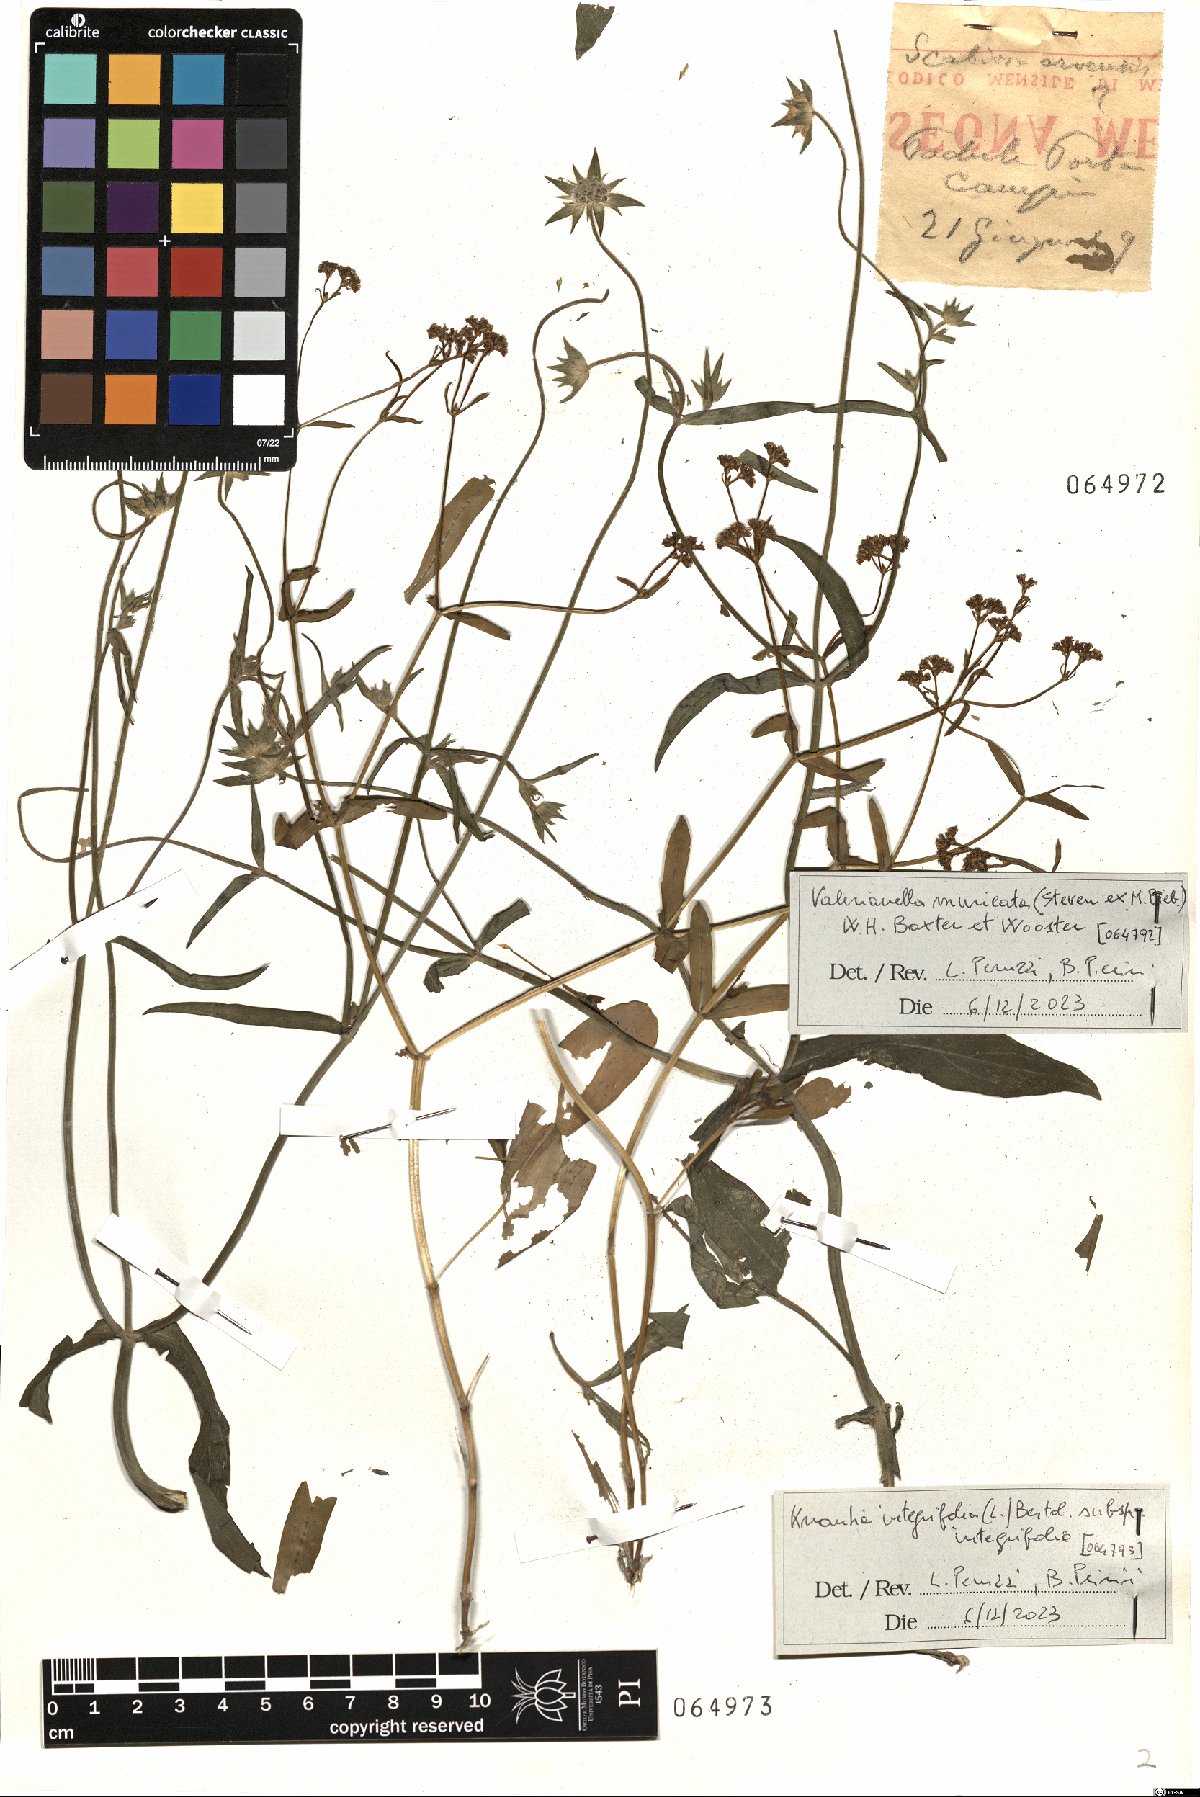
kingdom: Plantae
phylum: Tracheophyta
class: Magnoliopsida
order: Dipsacales
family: Caprifoliaceae
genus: Valerianella
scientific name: Valerianella eriocarpa
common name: Hairy-fruited cornsalad
